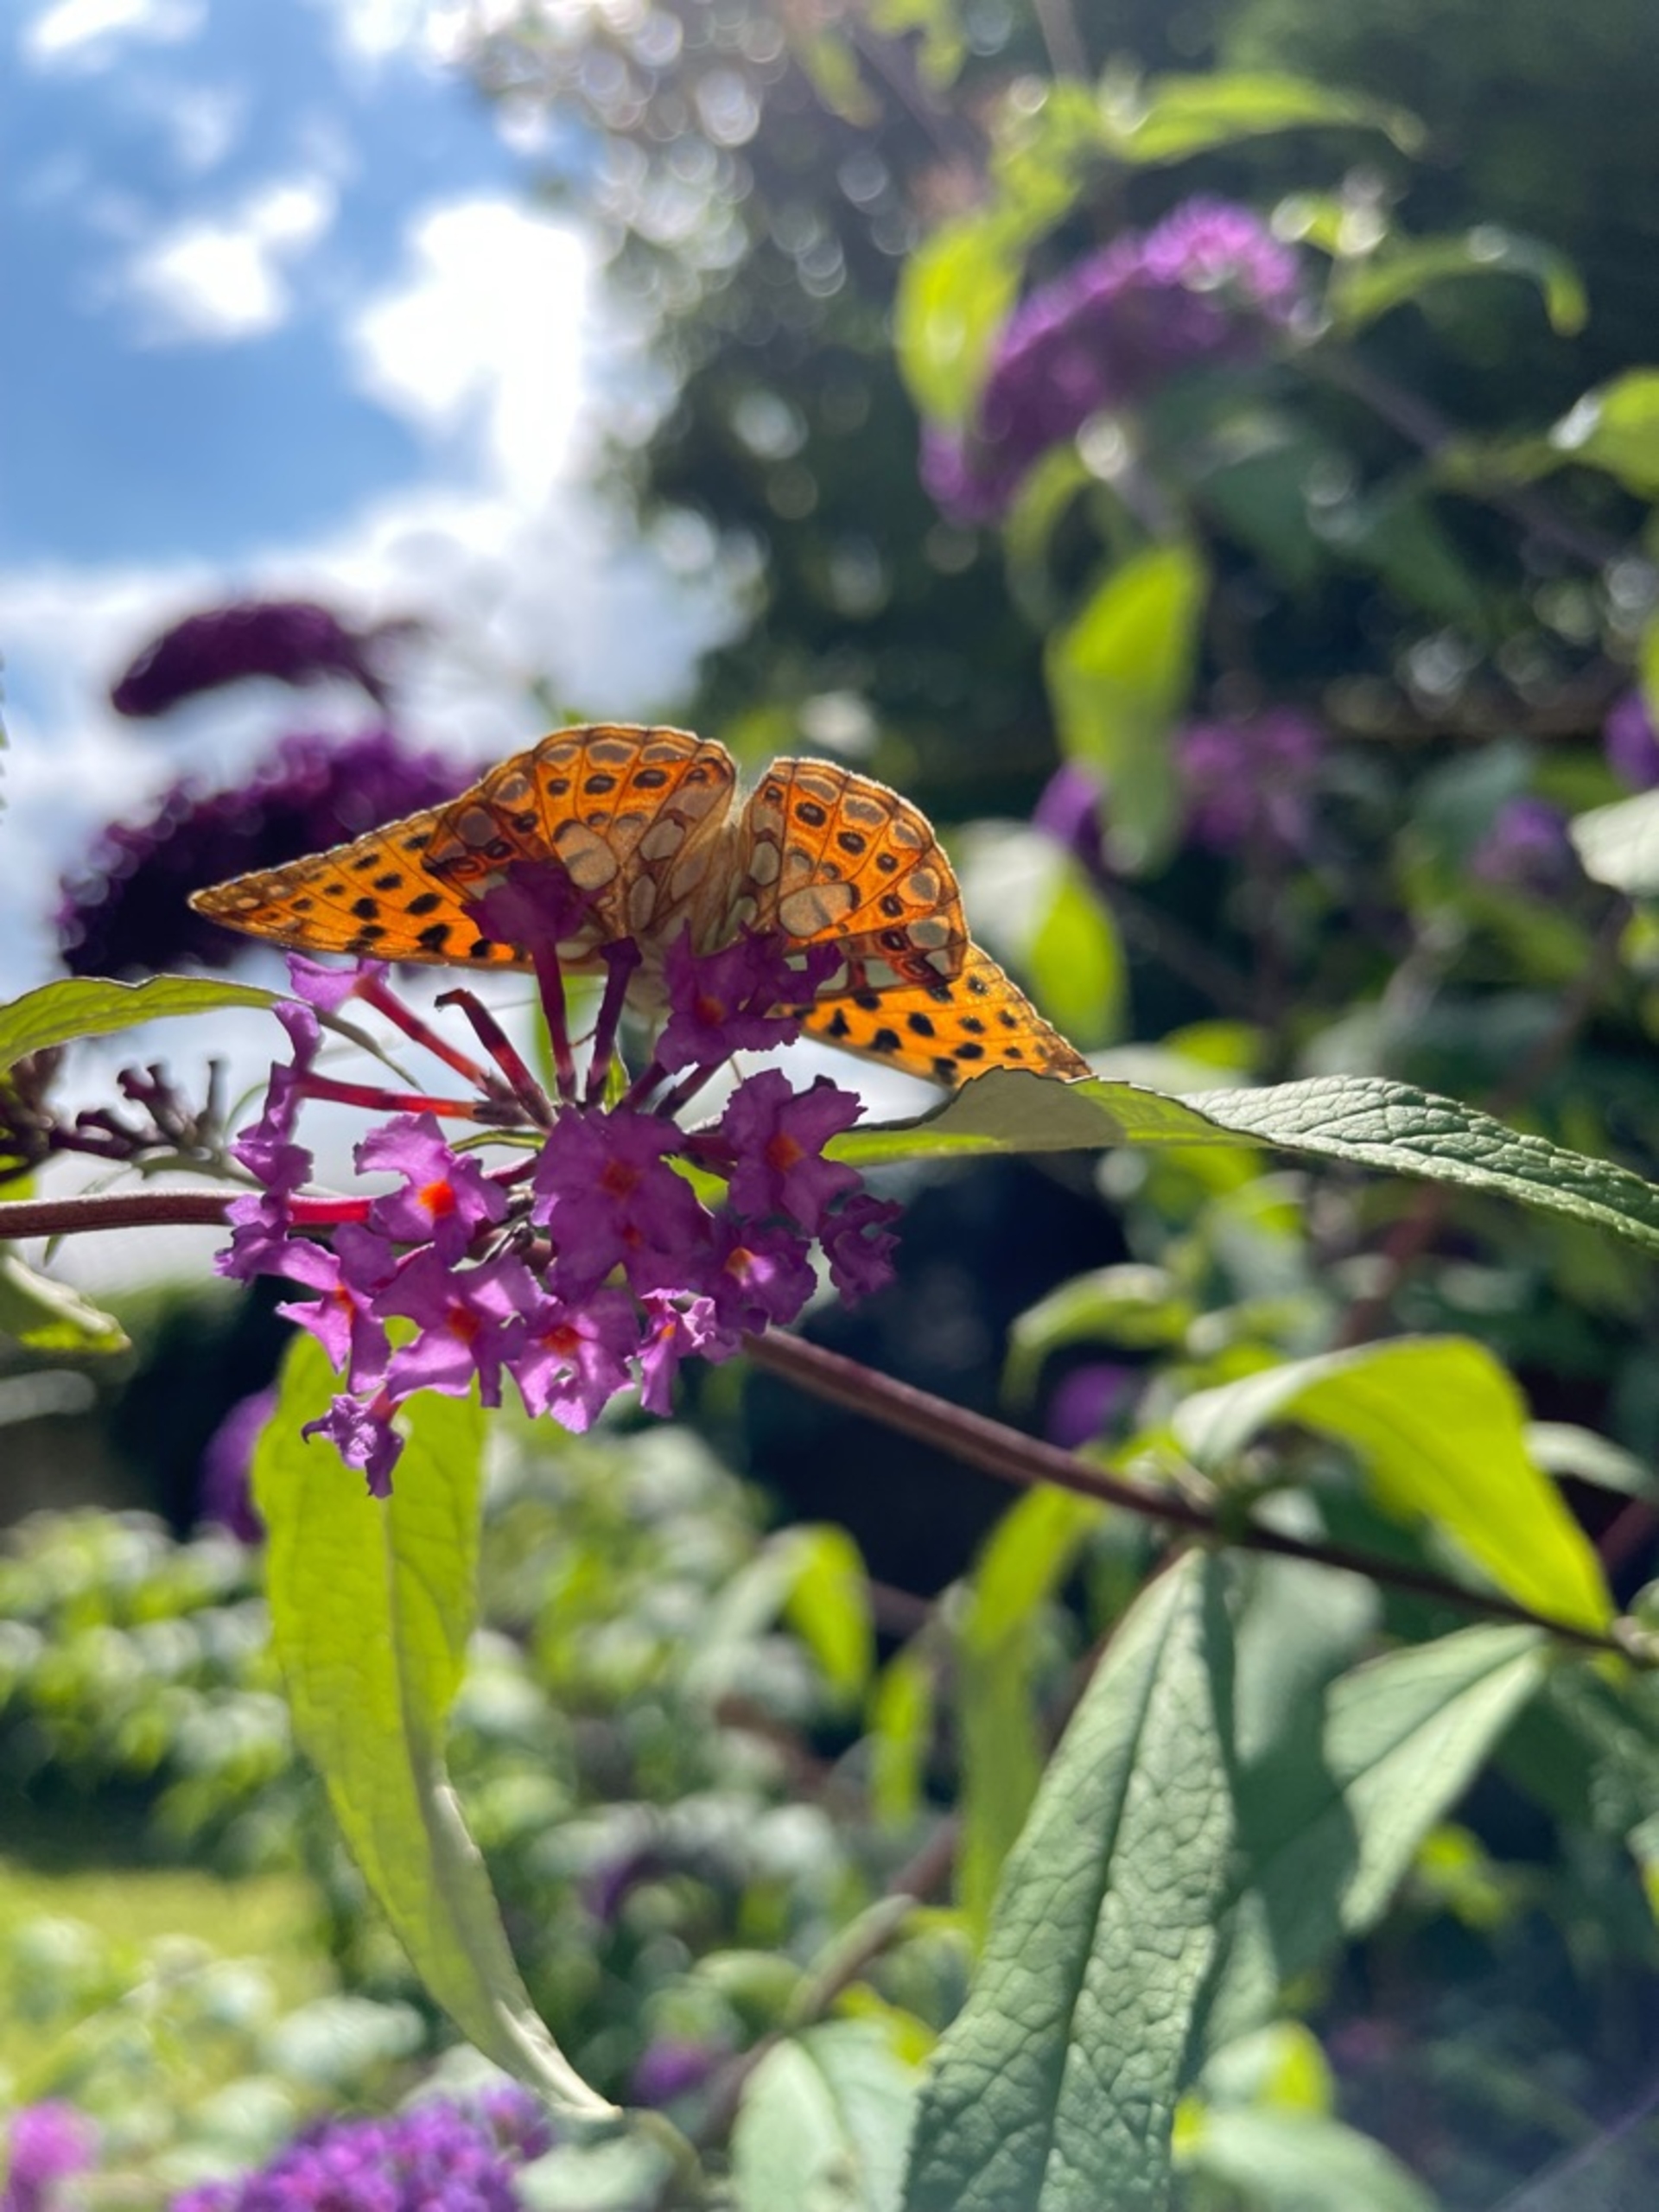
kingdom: Animalia
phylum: Arthropoda
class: Insecta
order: Lepidoptera
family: Nymphalidae
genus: Issoria
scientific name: Issoria lathonia
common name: Storplettet perlemorsommerfugl
